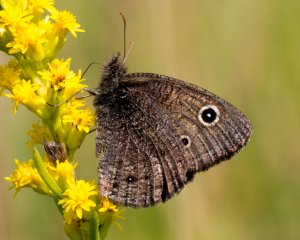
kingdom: Animalia
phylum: Arthropoda
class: Insecta
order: Lepidoptera
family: Nymphalidae
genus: Cercyonis
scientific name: Cercyonis oetus
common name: Small Wood-Nymph
